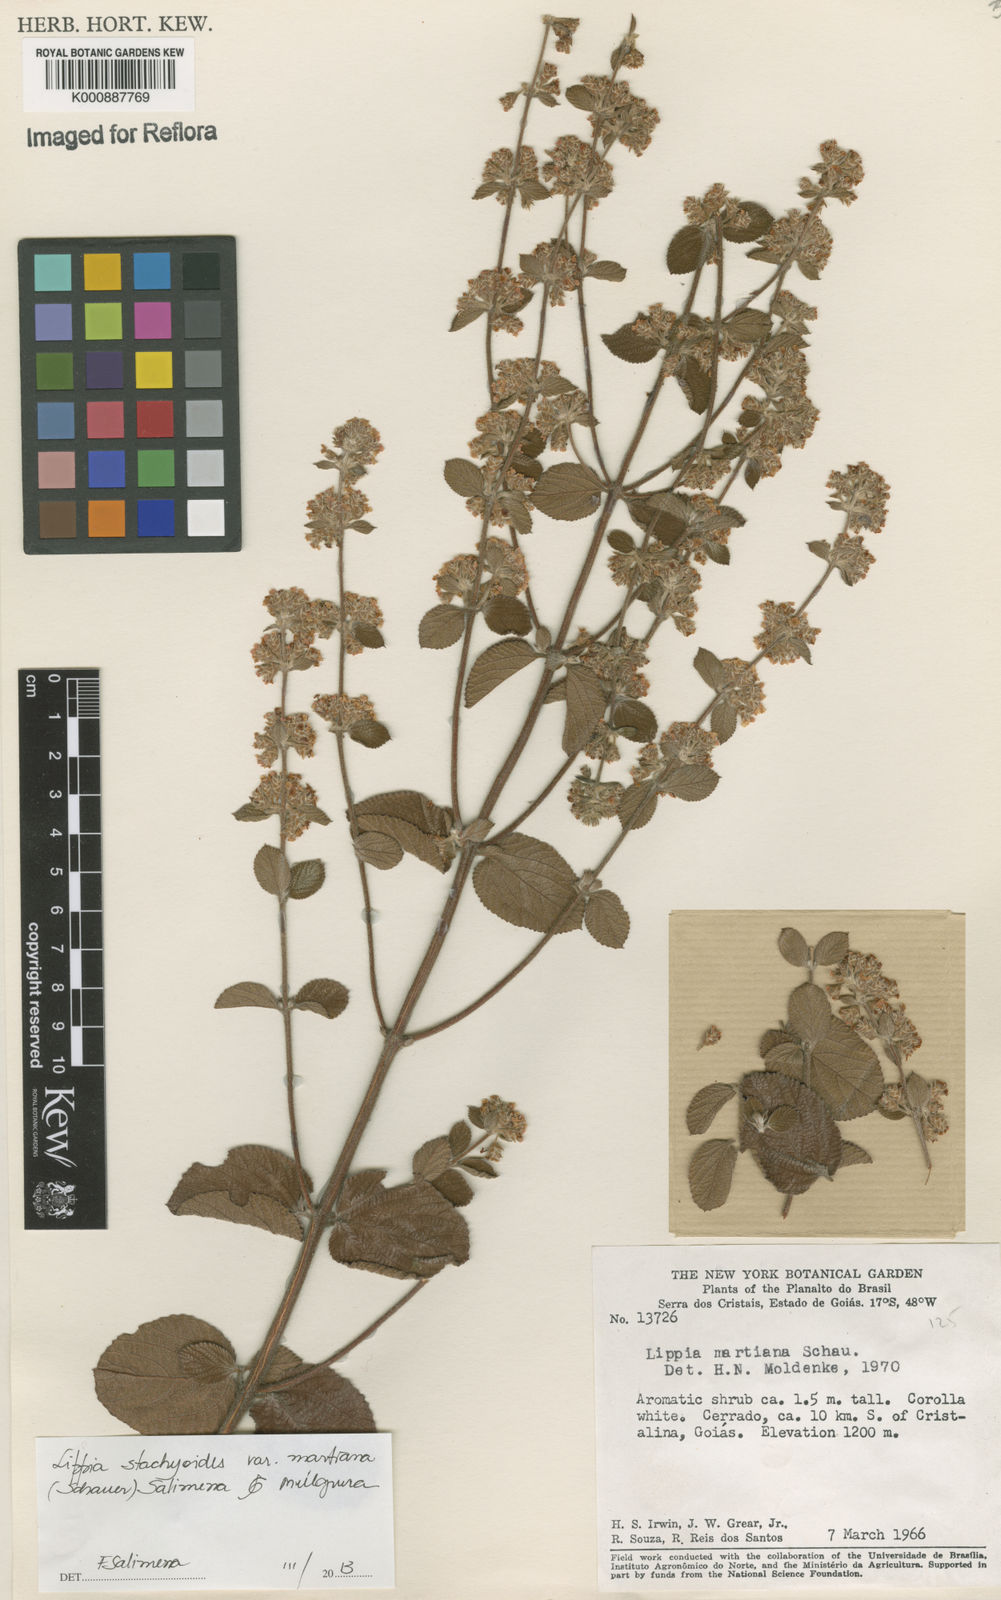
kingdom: Plantae
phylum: Tracheophyta
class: Magnoliopsida
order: Lamiales
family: Verbenaceae
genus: Lippia
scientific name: Lippia stachyoides
